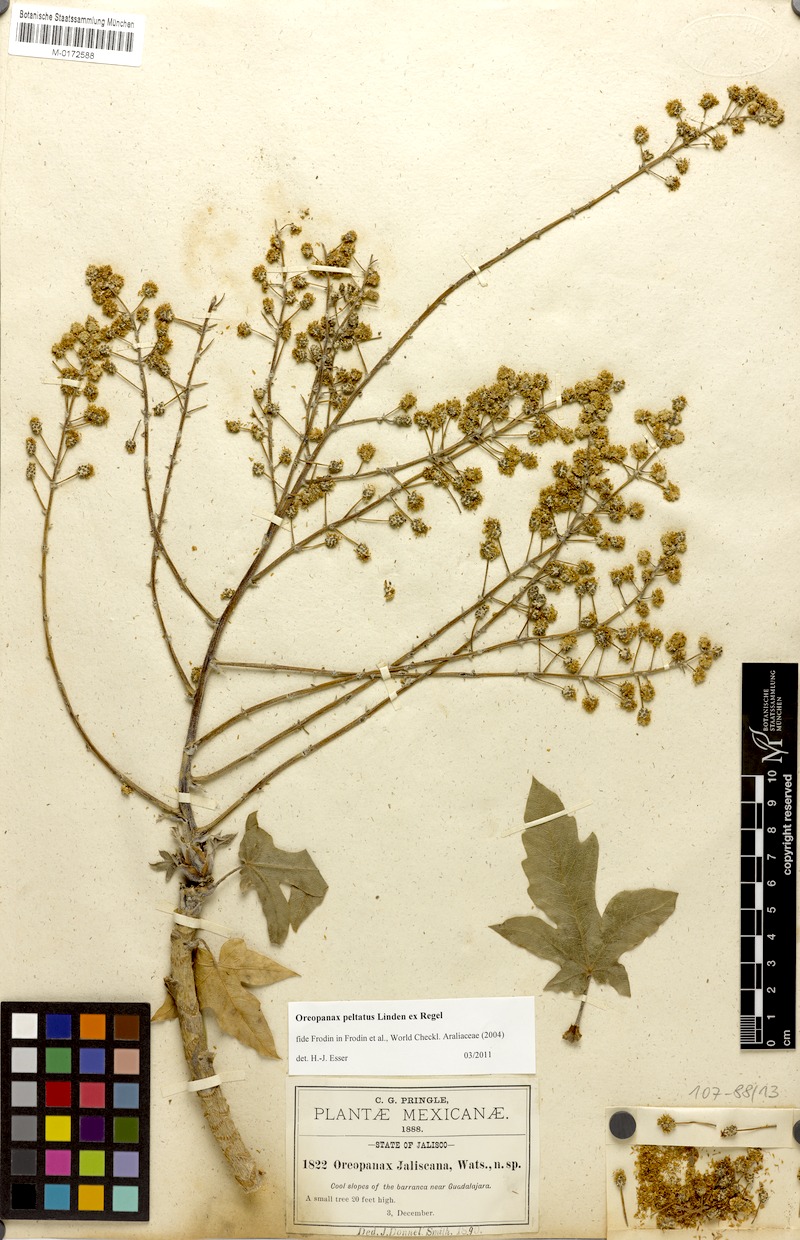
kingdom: Plantae
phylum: Tracheophyta
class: Magnoliopsida
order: Apiales
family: Araliaceae
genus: Oreopanax
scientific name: Oreopanax peltatus
